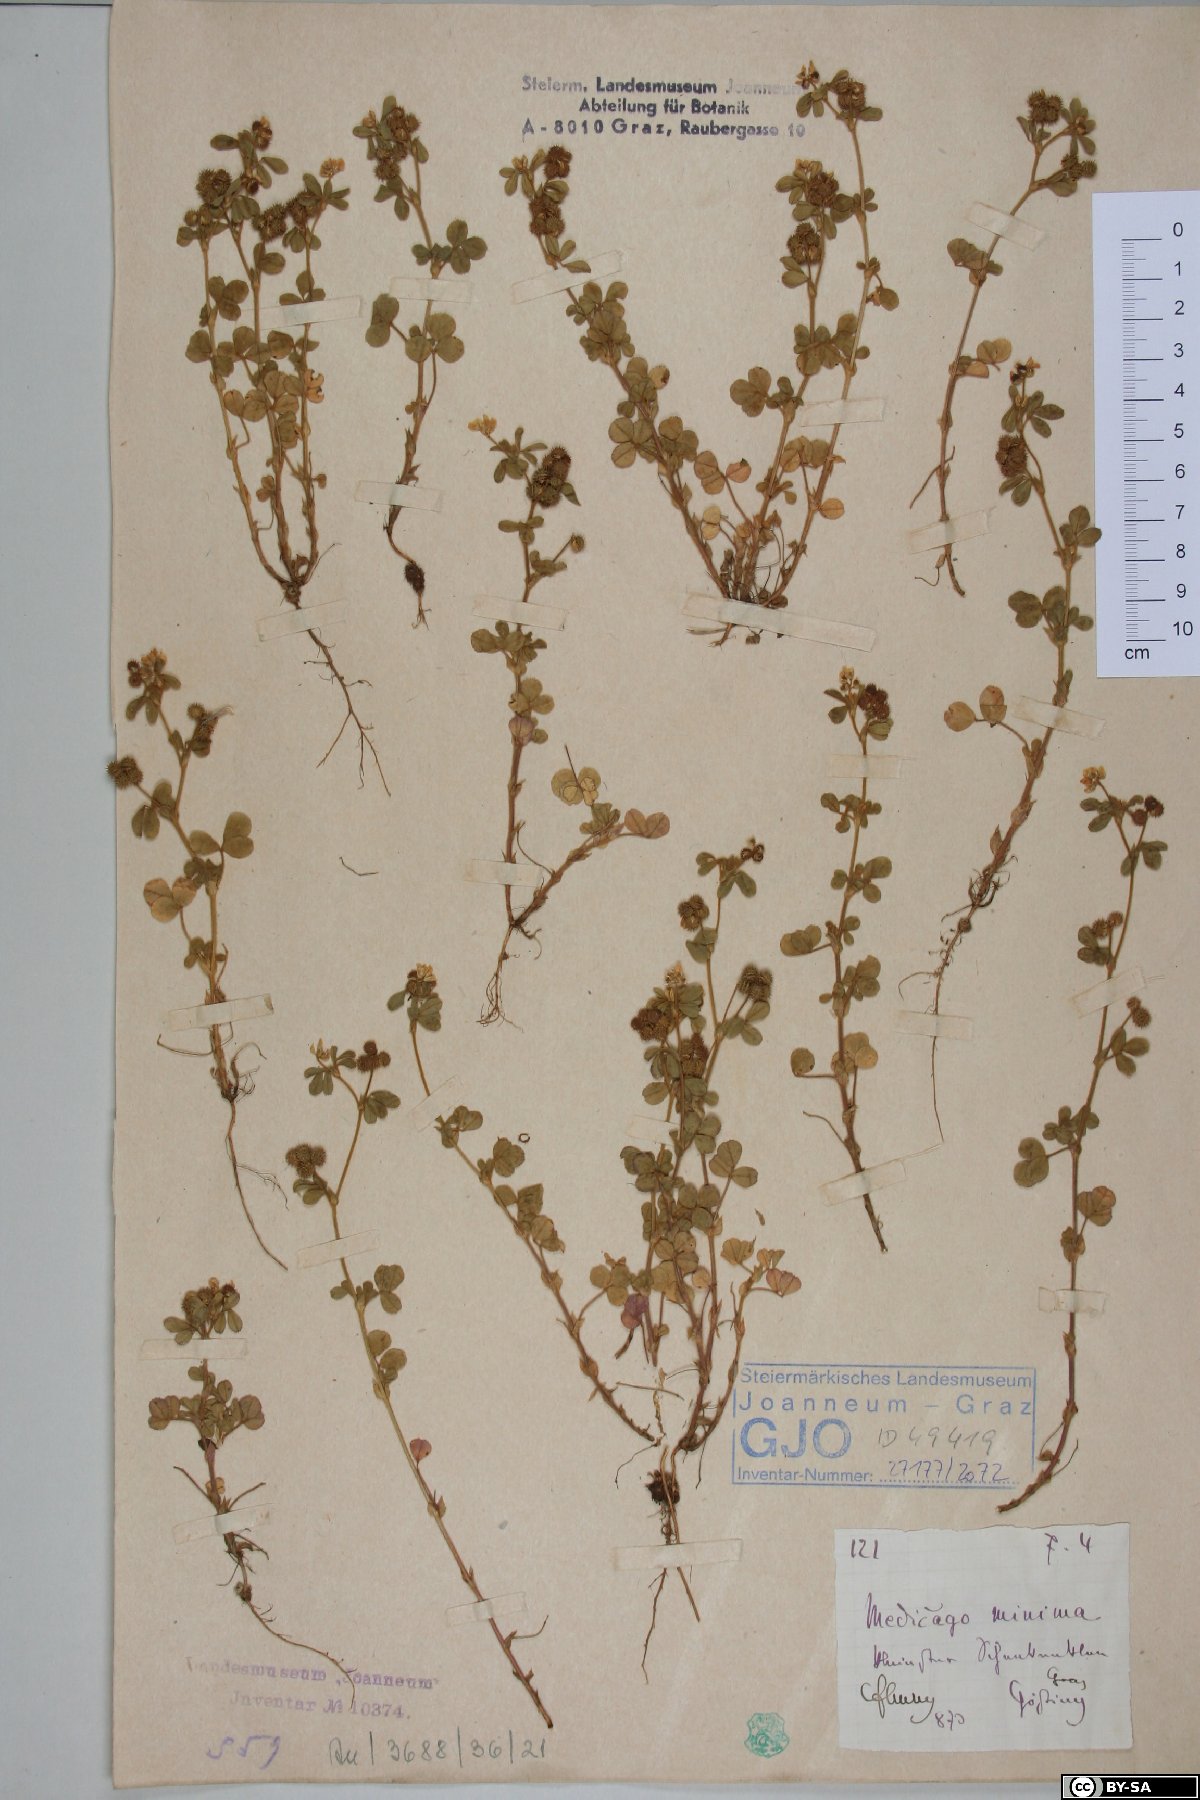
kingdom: Plantae
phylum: Tracheophyta
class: Magnoliopsida
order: Fabales
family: Fabaceae
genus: Medicago
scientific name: Medicago minima
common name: Little bur-clover
